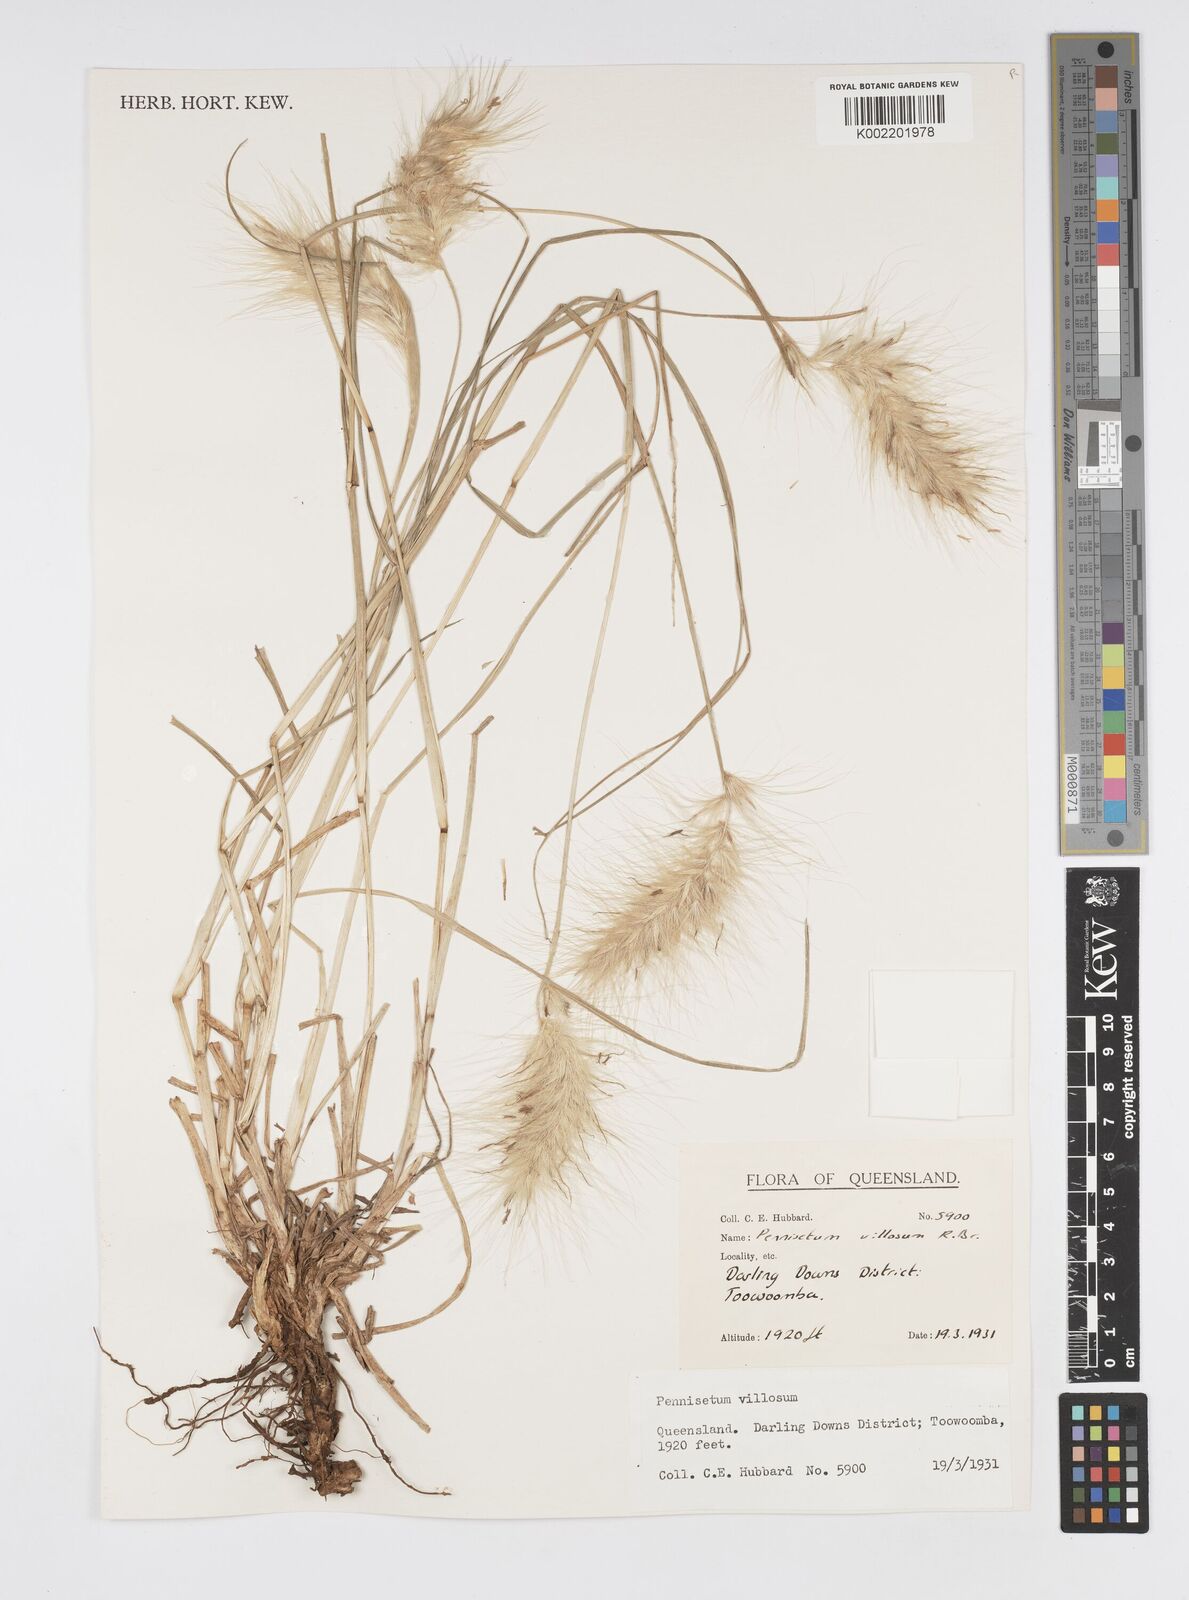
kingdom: Plantae
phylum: Tracheophyta
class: Liliopsida
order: Poales
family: Poaceae
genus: Cenchrus
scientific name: Cenchrus longisetus
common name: Feathertop
